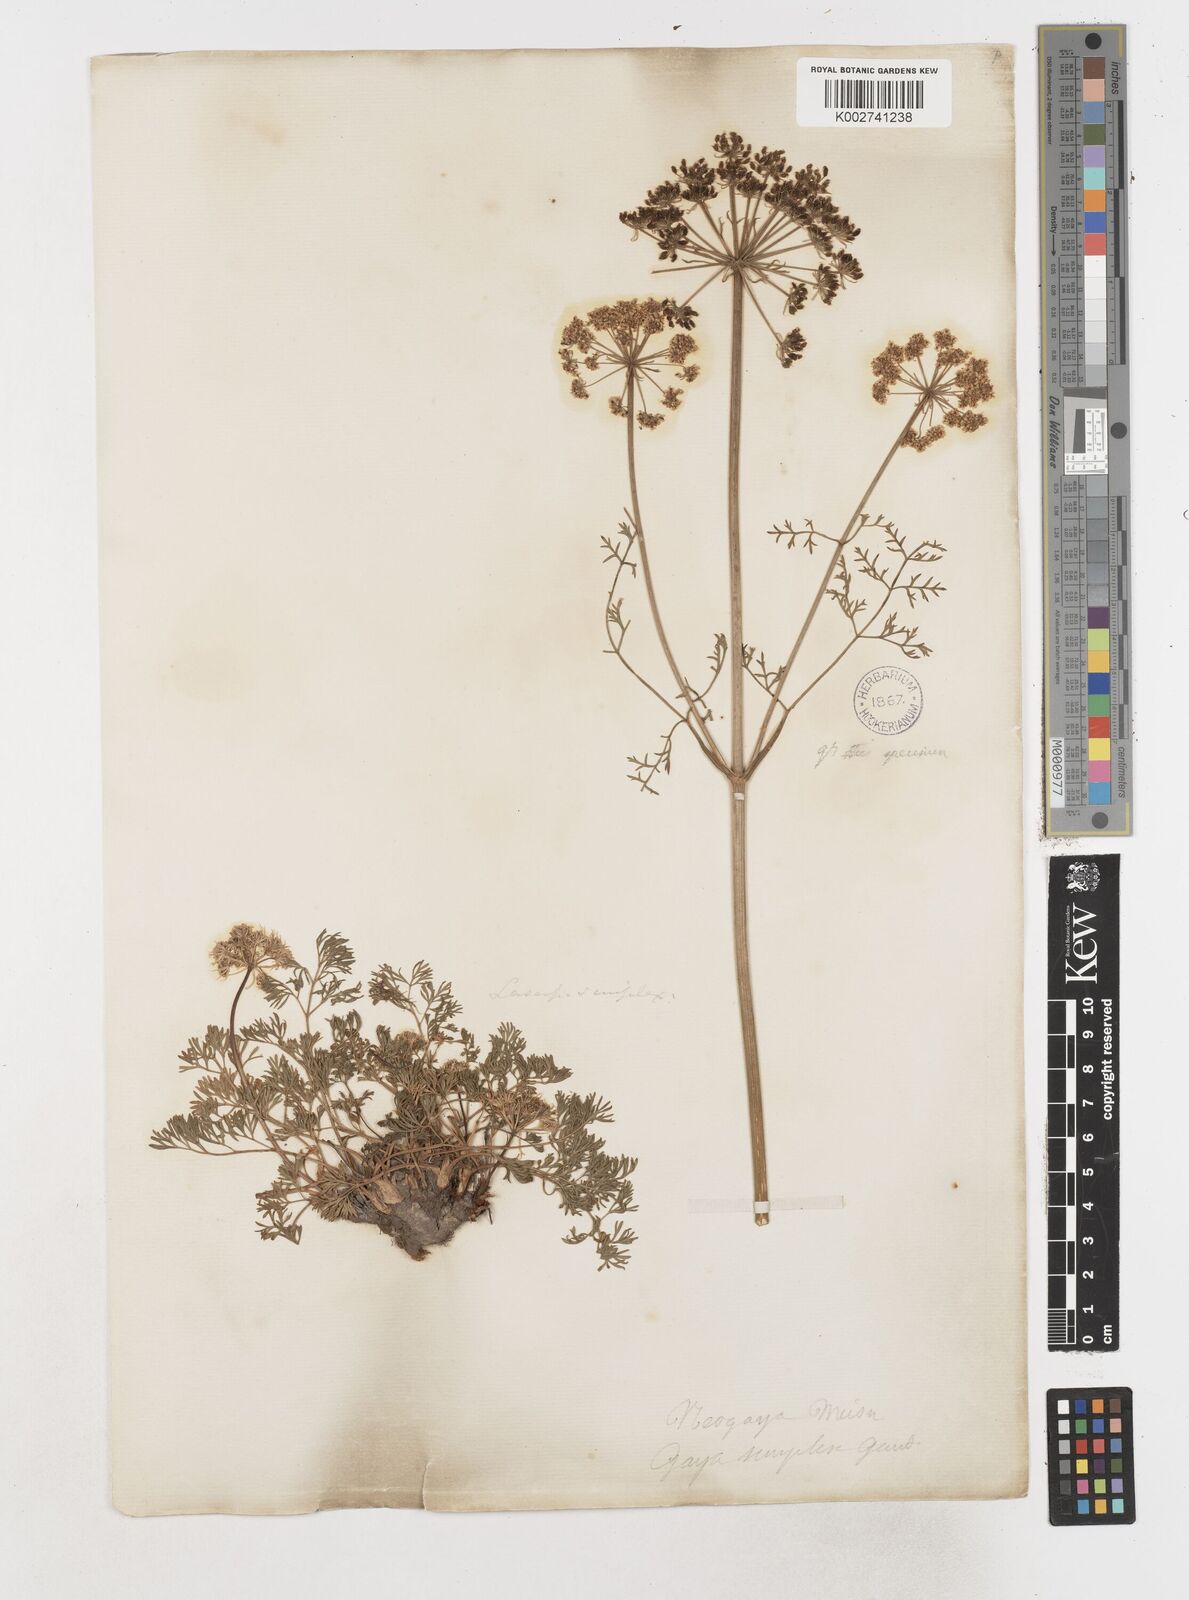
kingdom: Plantae
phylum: Tracheophyta
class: Magnoliopsida
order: Apiales
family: Apiaceae
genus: Pachypleurum
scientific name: Pachypleurum mutellinoides
